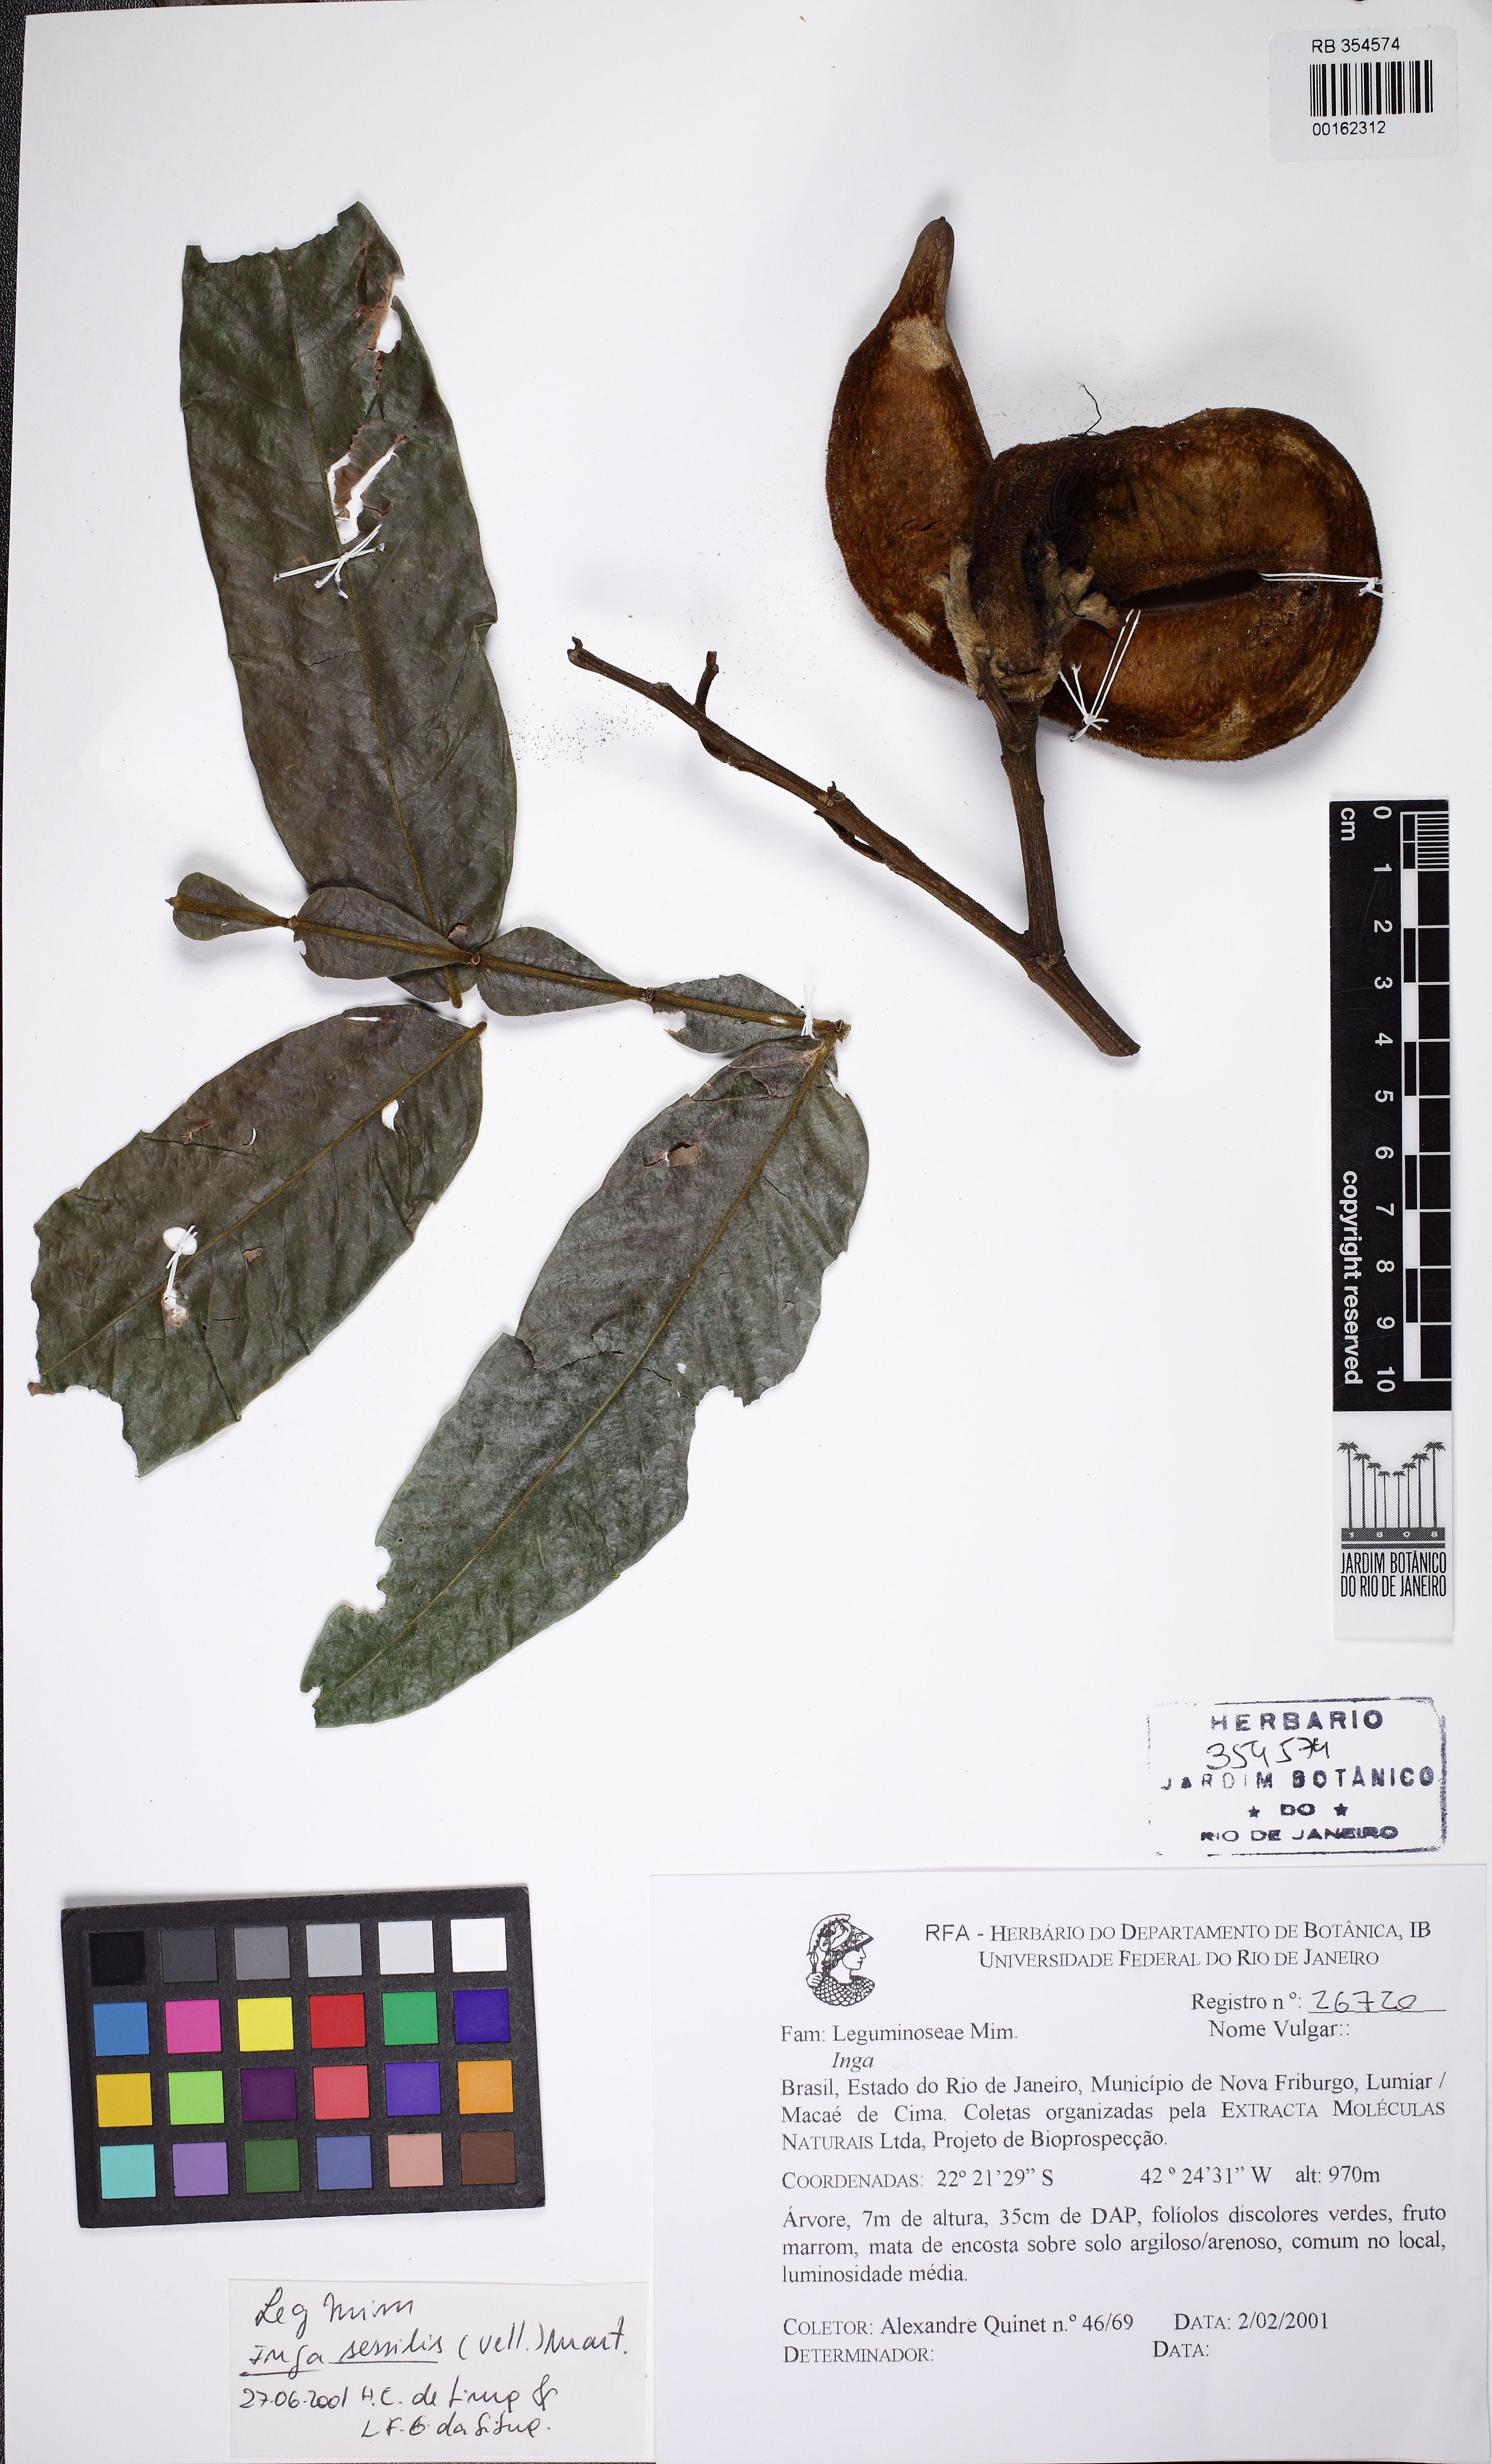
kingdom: Plantae
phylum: Tracheophyta
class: Magnoliopsida
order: Fabales
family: Fabaceae
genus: Inga
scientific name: Inga sessilis
